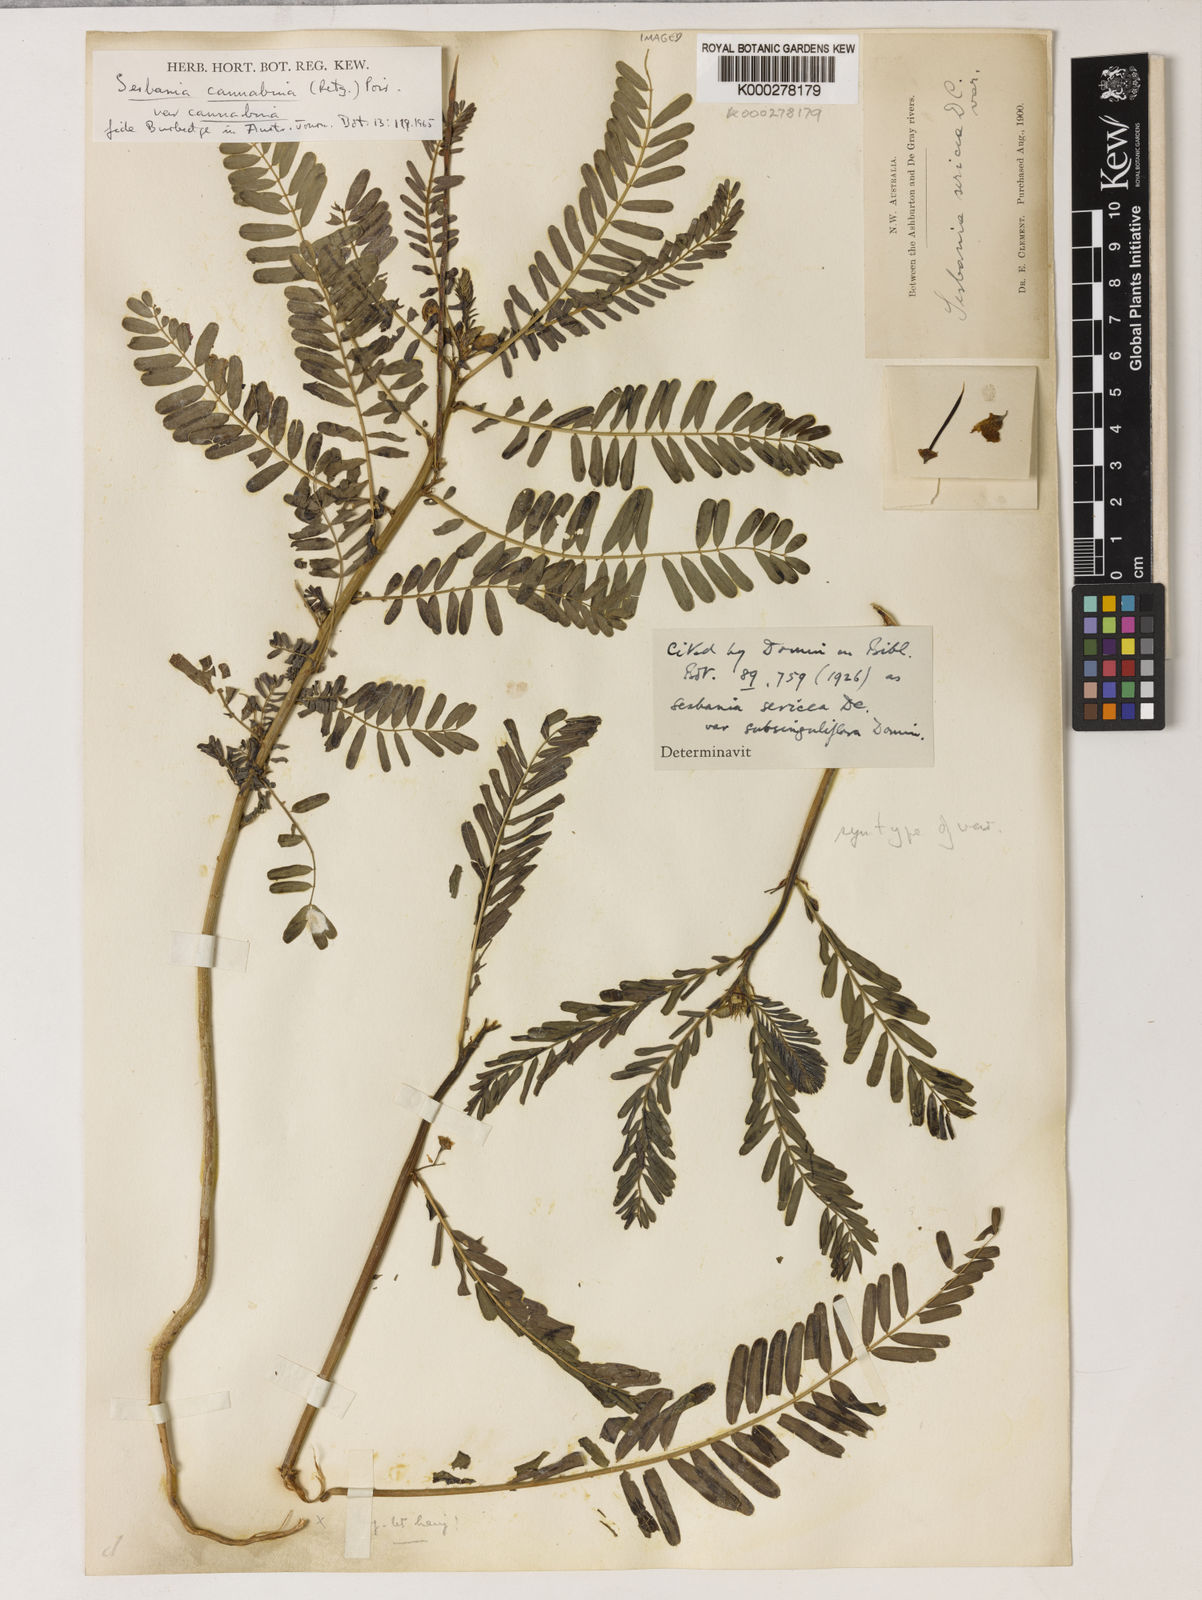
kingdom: Plantae
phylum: Tracheophyta
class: Magnoliopsida
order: Fabales
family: Fabaceae
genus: Sesbania
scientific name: Sesbania cannabina
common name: Canicha
